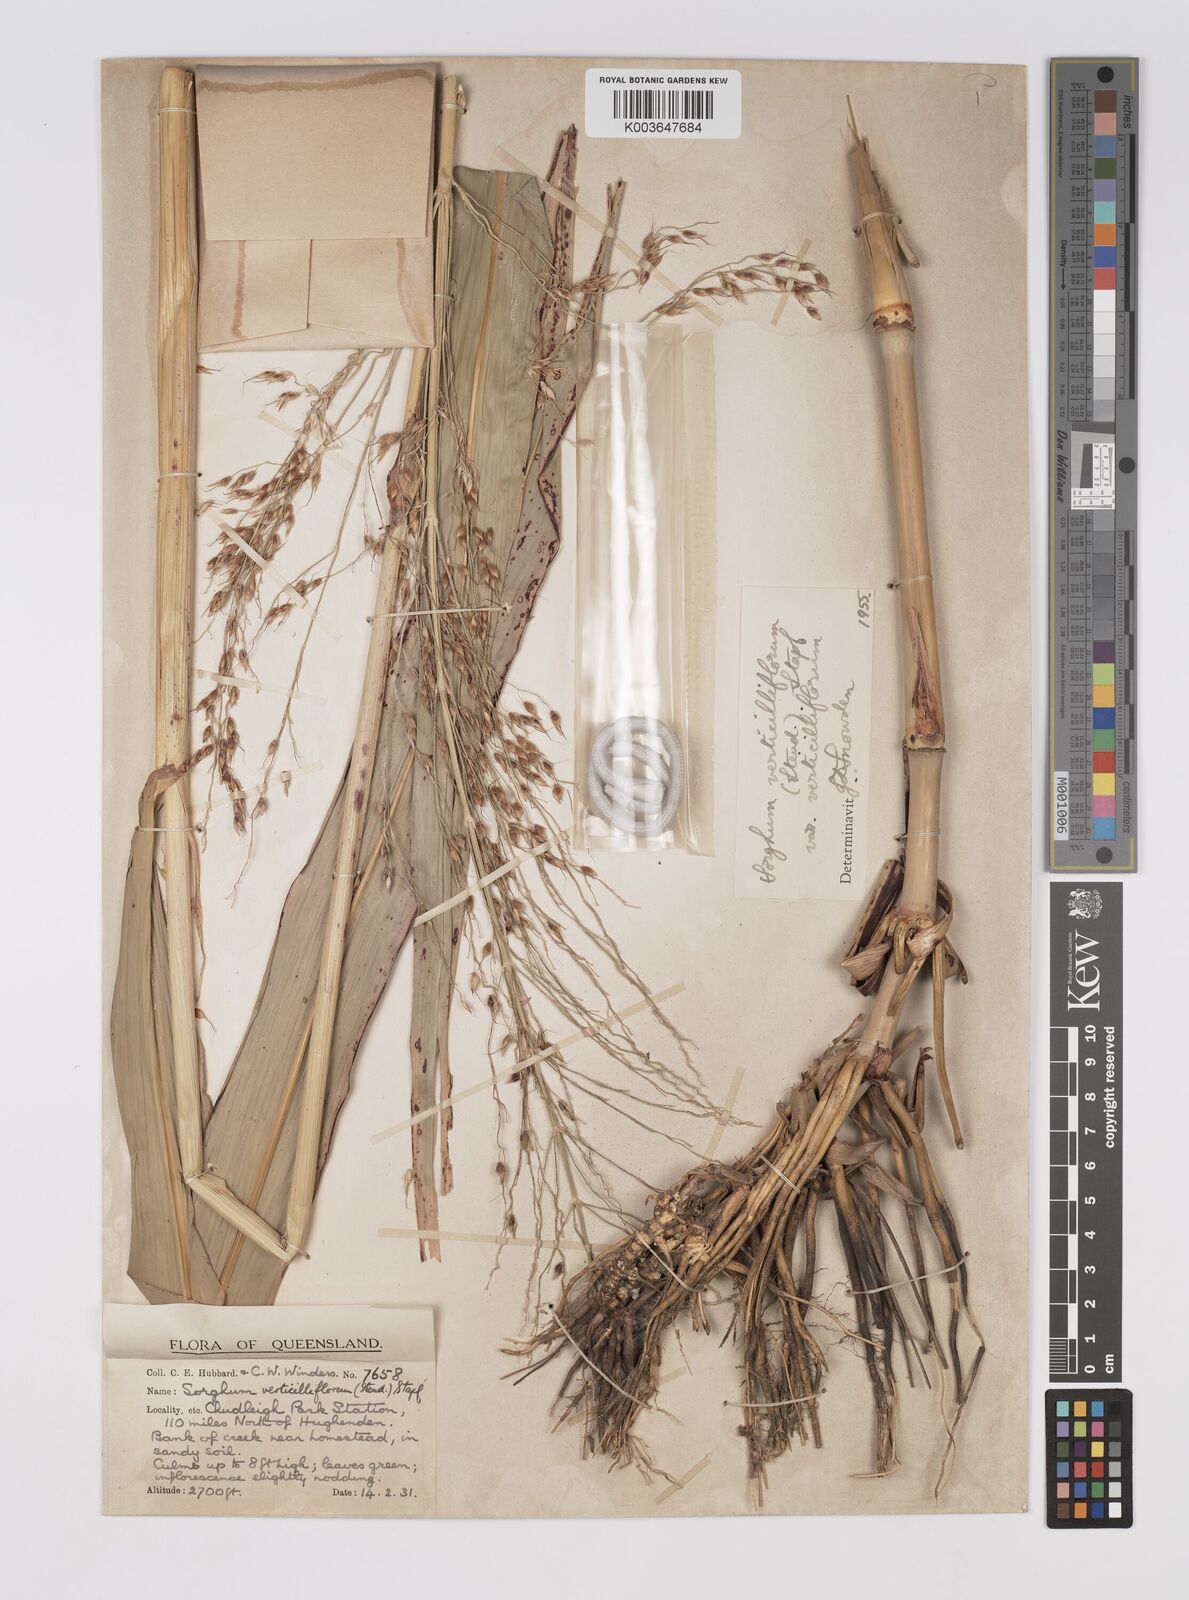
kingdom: Plantae
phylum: Tracheophyta
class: Liliopsida
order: Poales
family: Poaceae
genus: Sorghum
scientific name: Sorghum arundinaceum
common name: Sorghum
